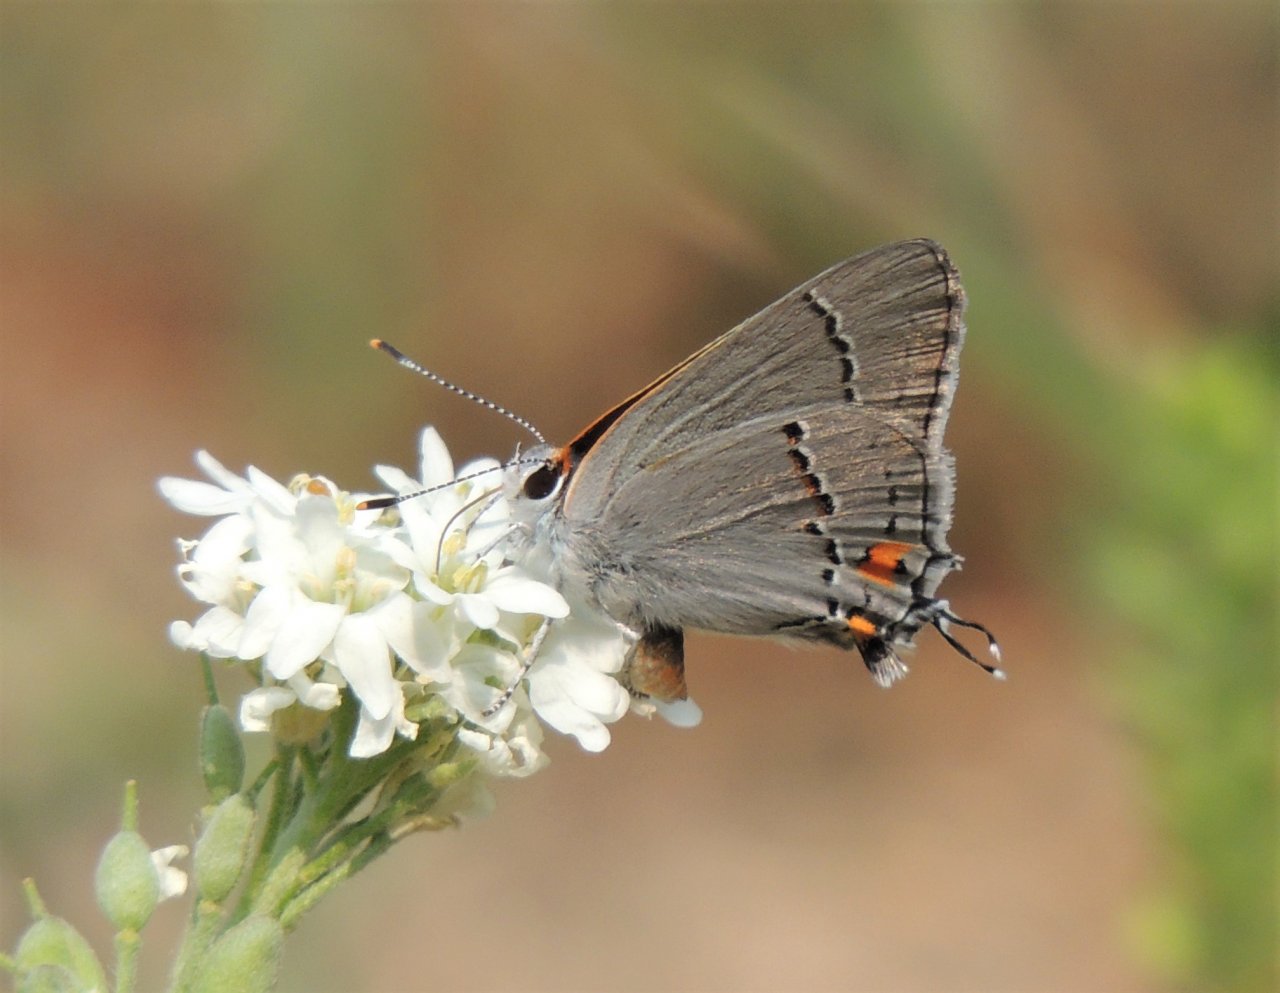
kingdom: Animalia
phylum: Arthropoda
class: Insecta
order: Lepidoptera
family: Lycaenidae
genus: Strymon
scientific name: Strymon melinus
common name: Gray Hairstreak
